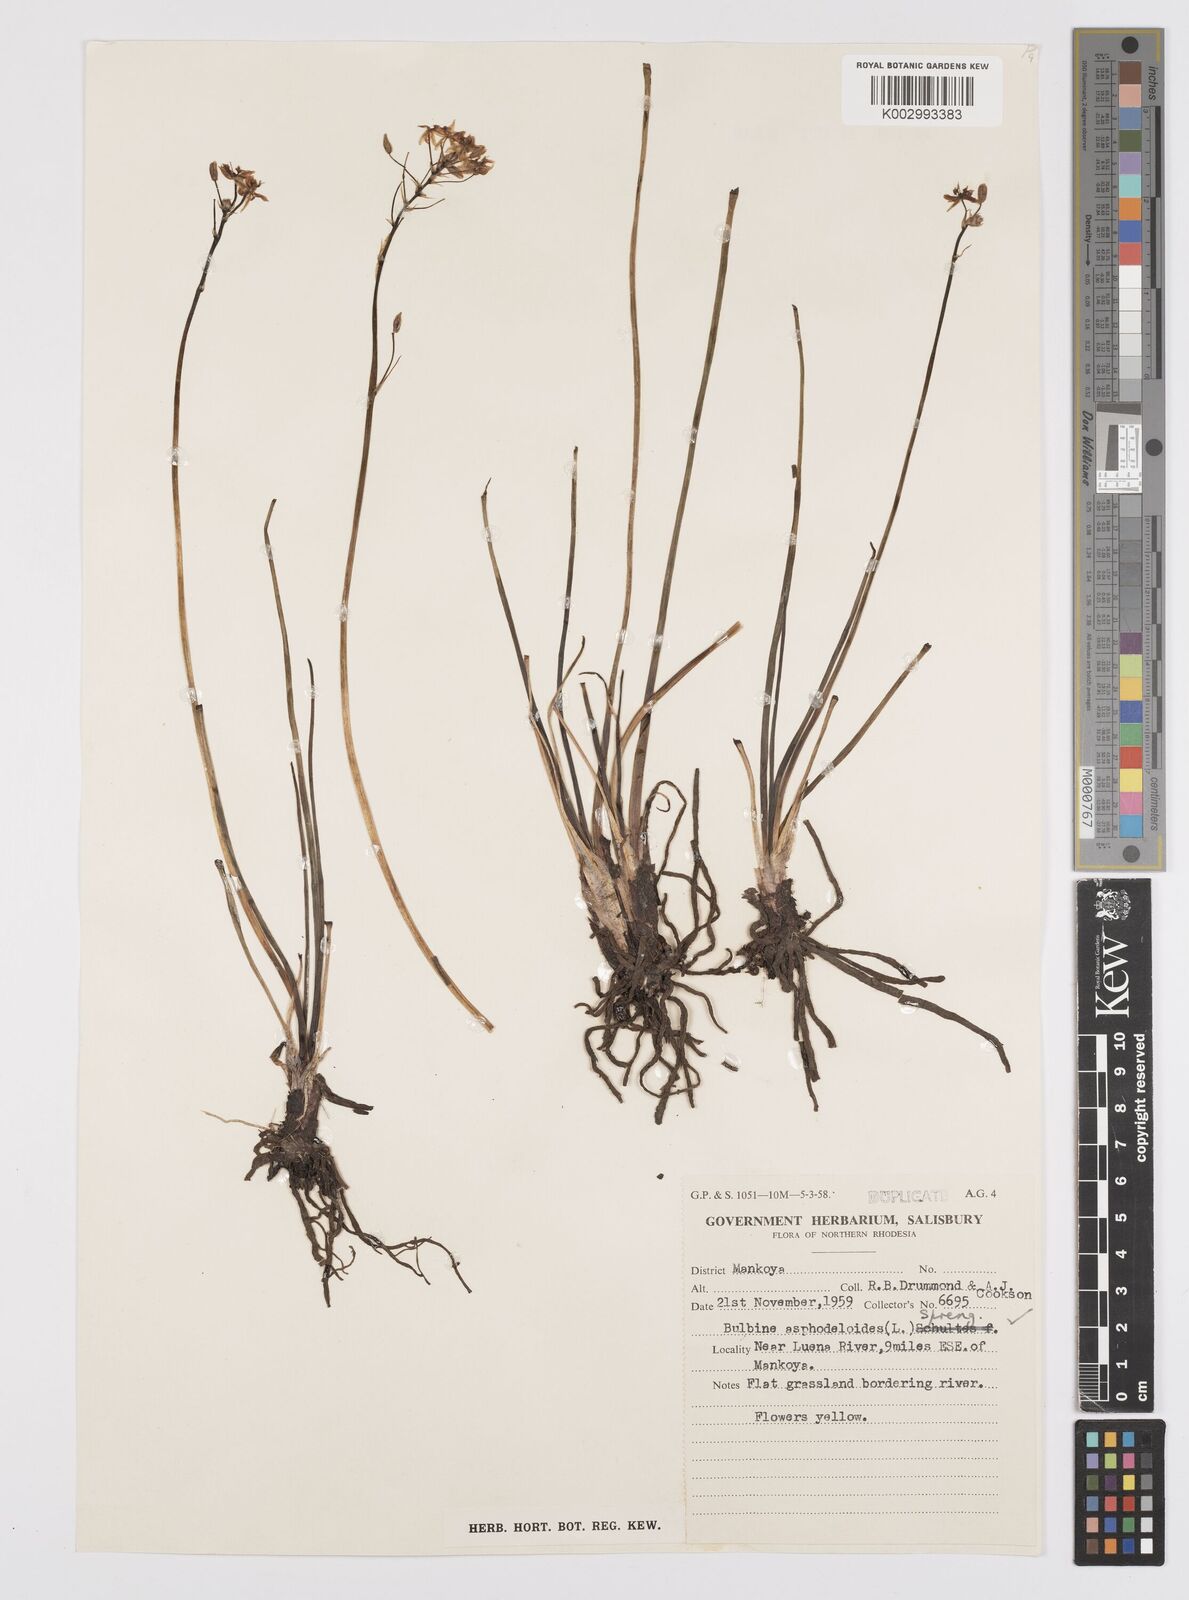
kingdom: Plantae
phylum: Tracheophyta
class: Liliopsida
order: Asparagales
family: Asphodelaceae
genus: Bulbine
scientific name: Bulbine abyssinica
